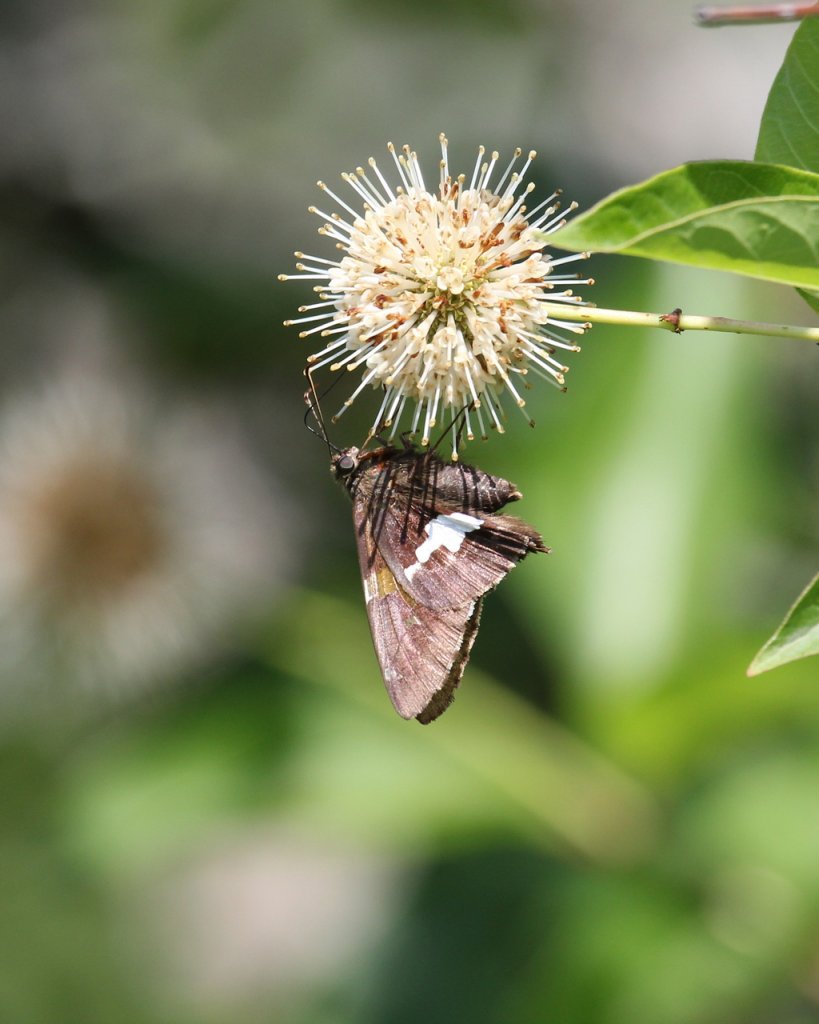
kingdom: Animalia
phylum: Arthropoda
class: Insecta
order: Lepidoptera
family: Hesperiidae
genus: Epargyreus
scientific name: Epargyreus clarus
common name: Silver-spotted Skipper
